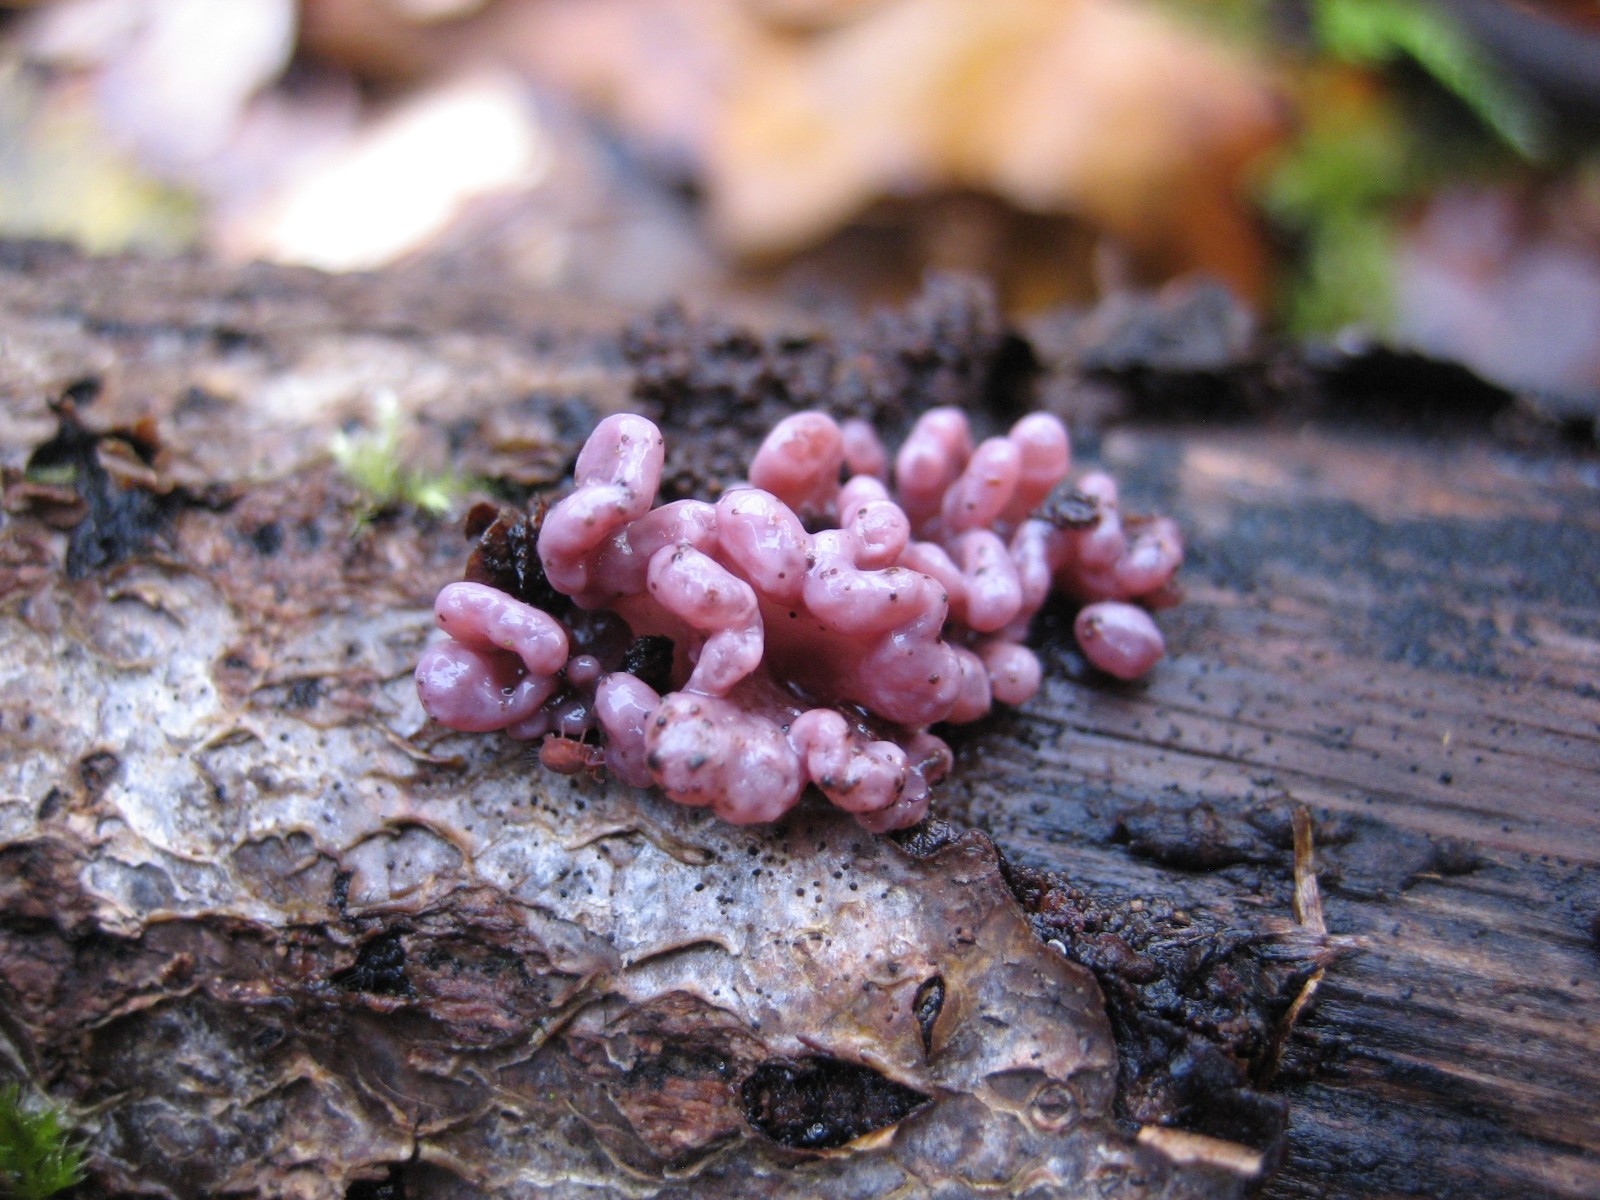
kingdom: Fungi
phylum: Ascomycota
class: Leotiomycetes
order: Helotiales
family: Gelatinodiscaceae
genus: Ascocoryne
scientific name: Ascocoryne sarcoides
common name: rødlilla sejskive
